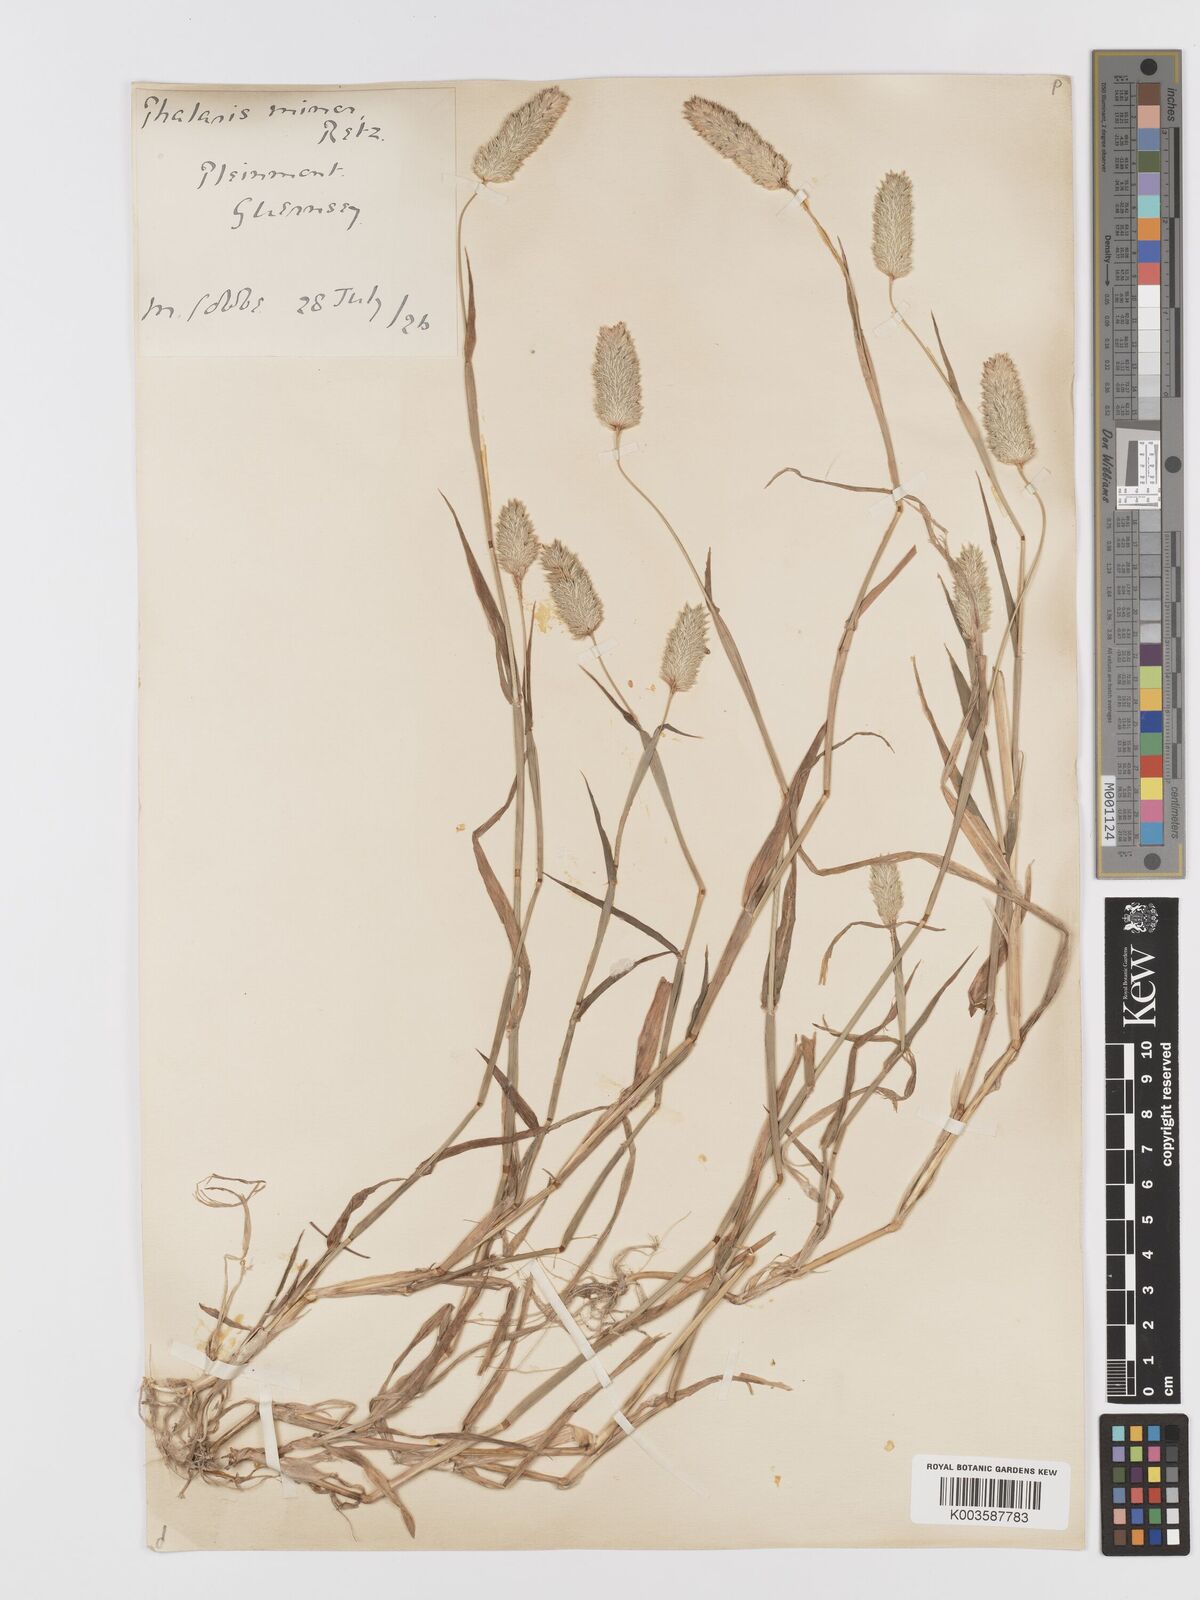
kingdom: Plantae
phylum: Tracheophyta
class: Liliopsida
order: Poales
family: Poaceae
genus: Phalaris
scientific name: Phalaris minor
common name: Littleseed canarygrass
